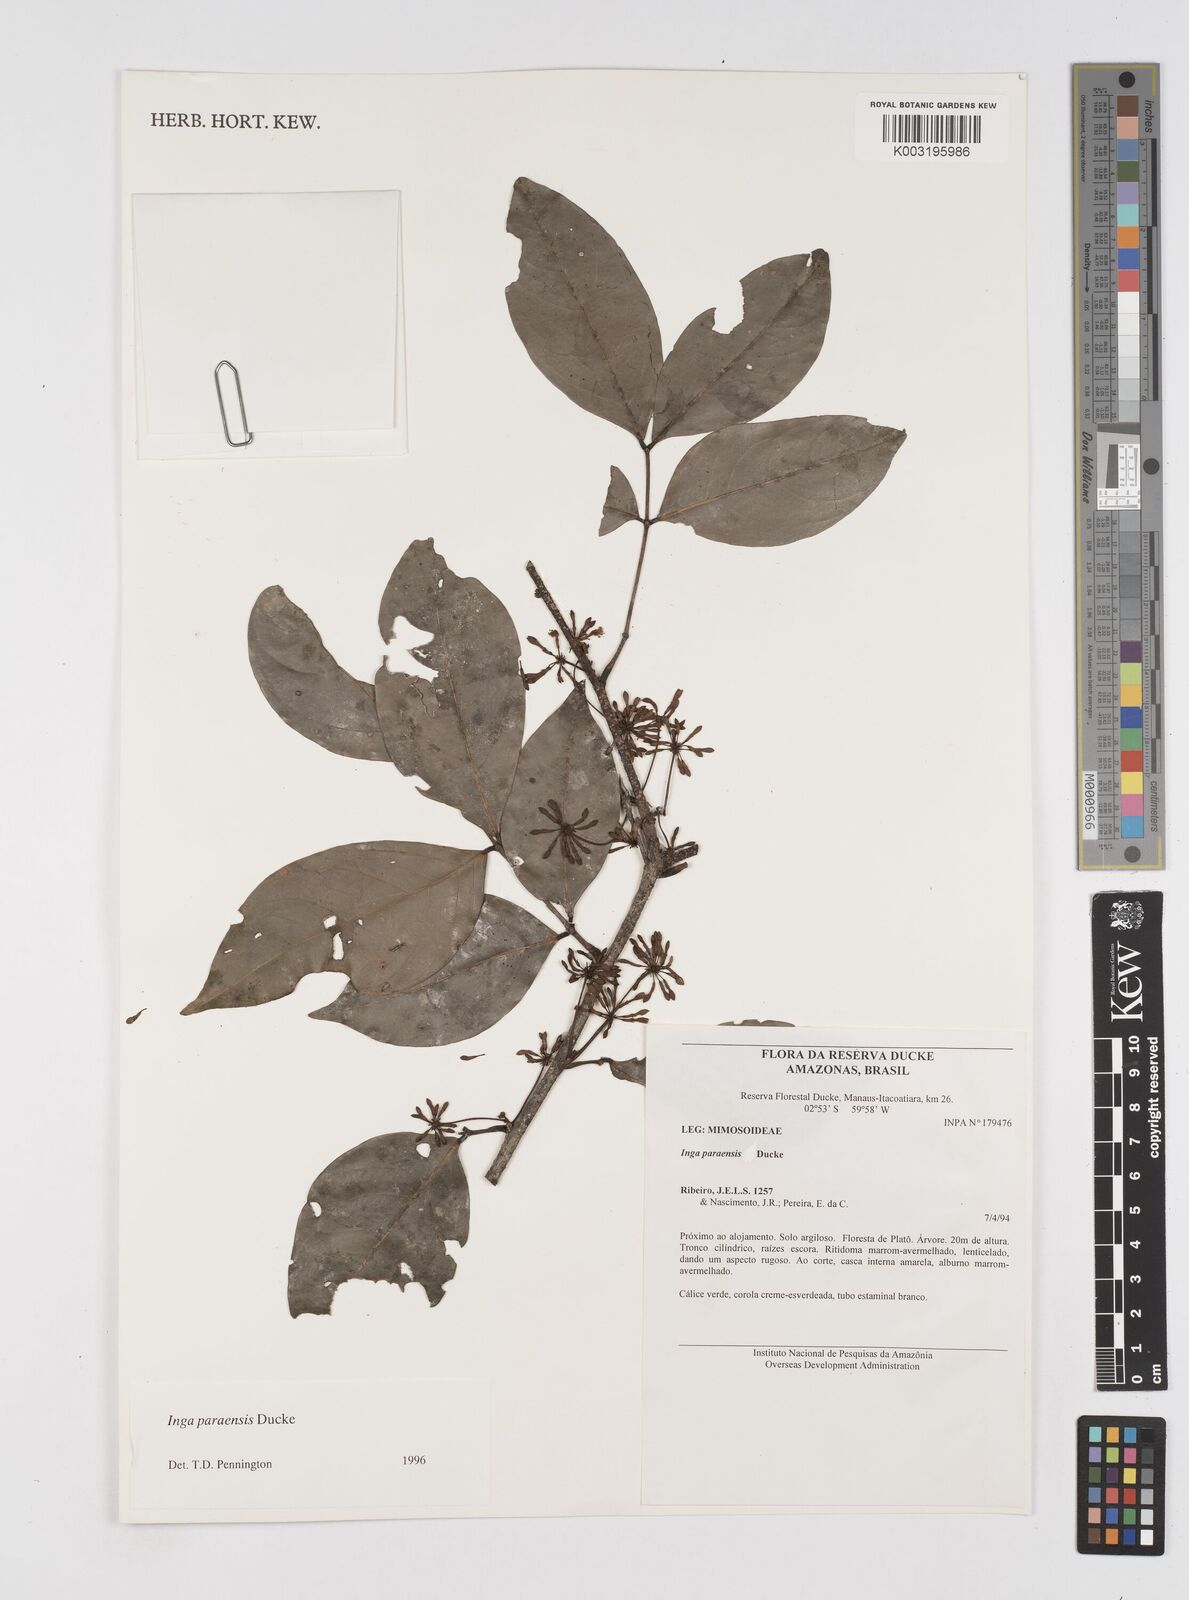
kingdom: Plantae
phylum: Tracheophyta
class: Magnoliopsida
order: Fabales
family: Fabaceae
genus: Inga
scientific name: Inga paraensis
